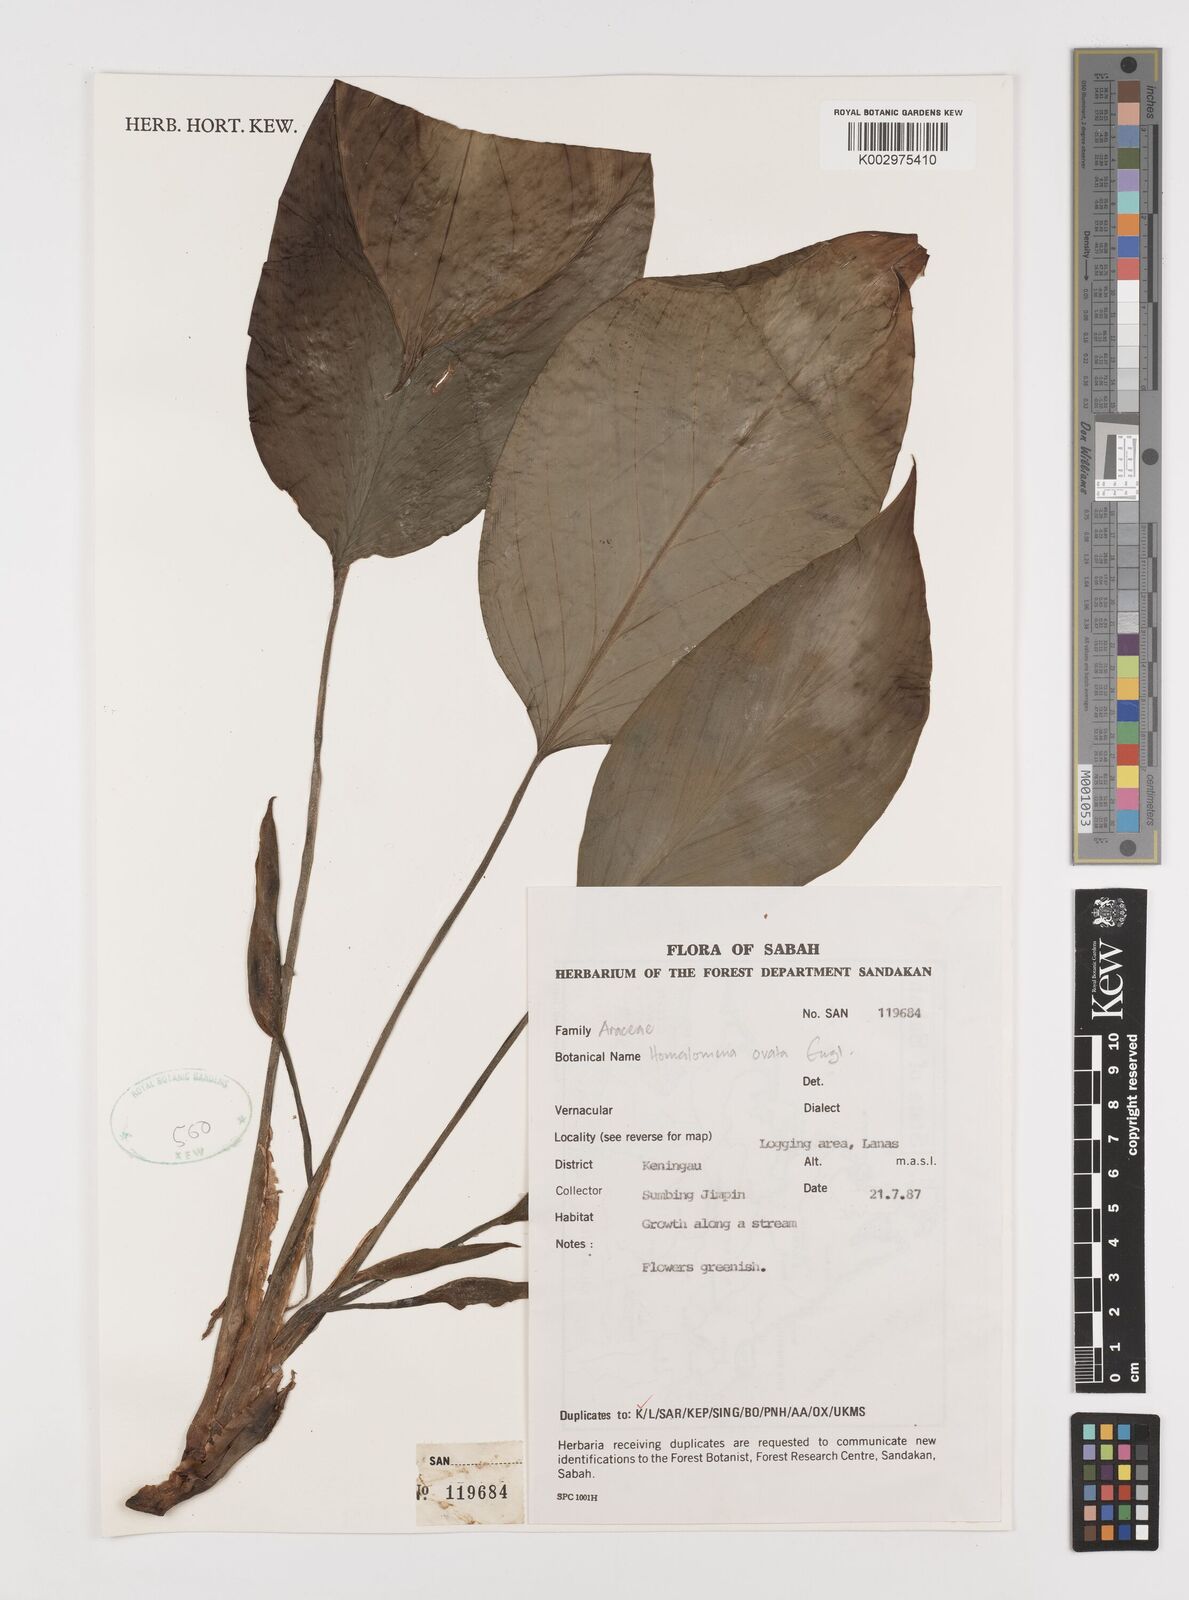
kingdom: Plantae
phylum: Tracheophyta
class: Liliopsida
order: Alismatales
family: Araceae
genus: Homalomena
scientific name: Homalomena ovata
